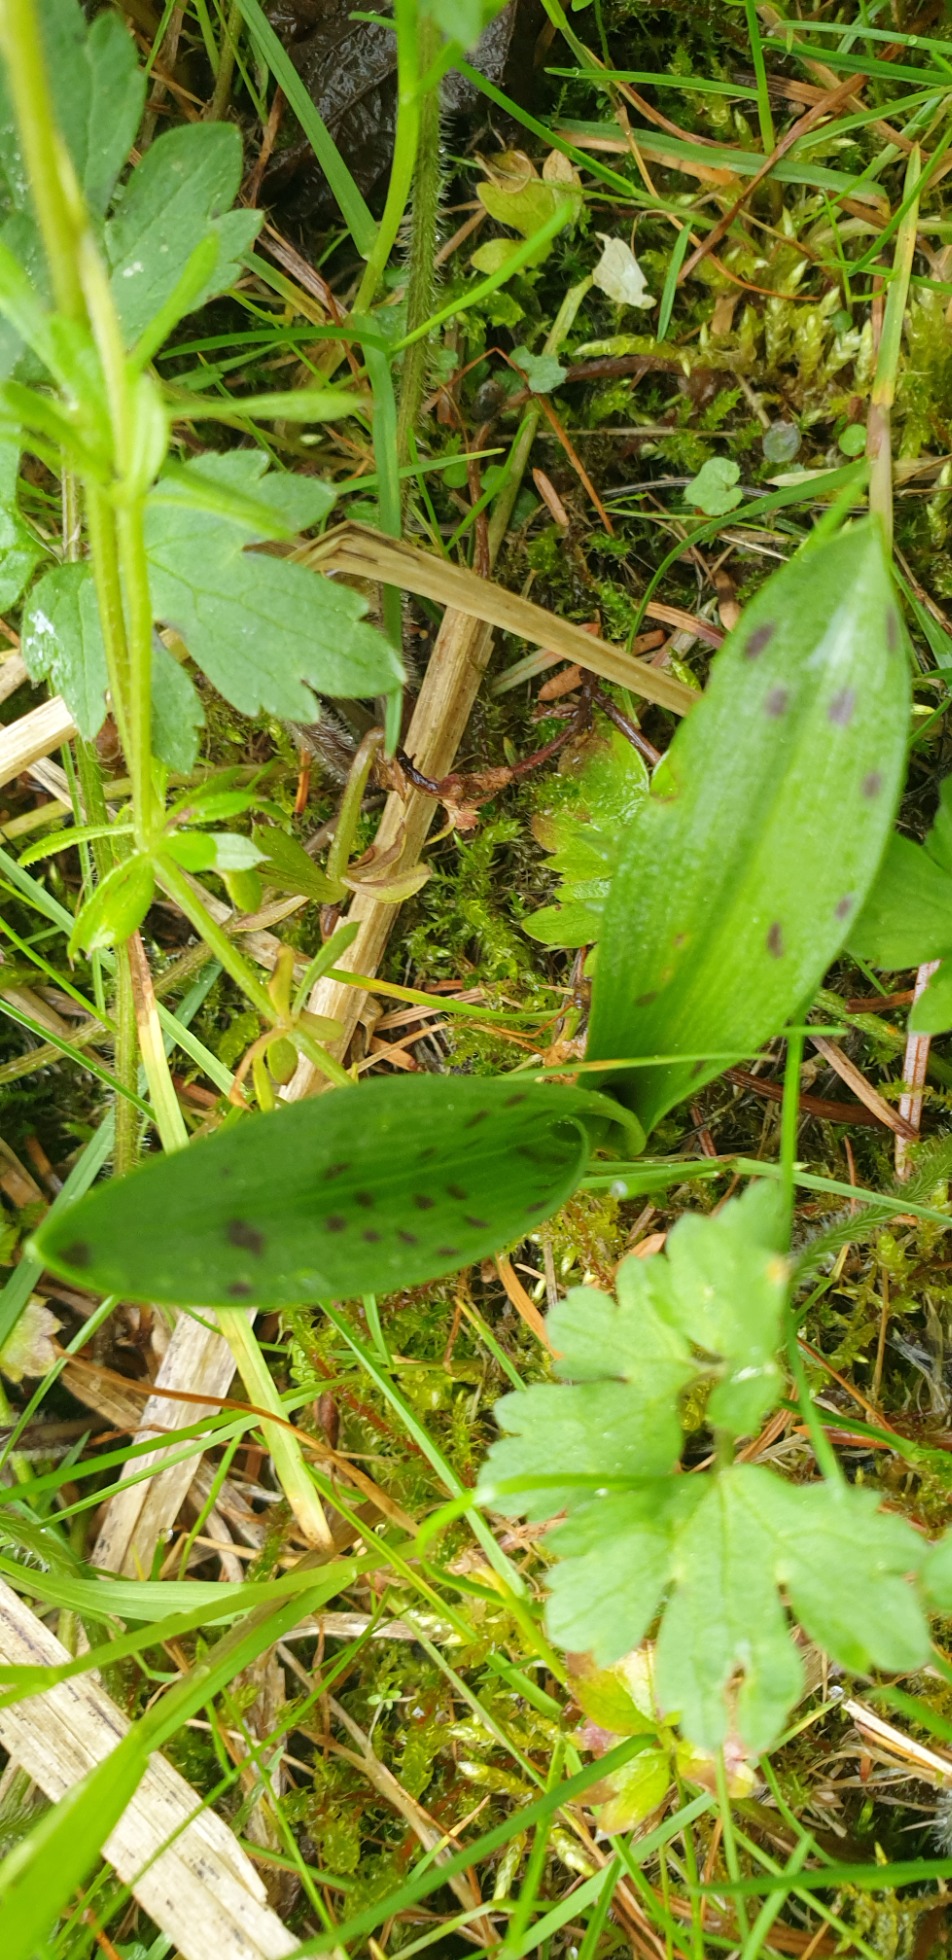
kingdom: Plantae
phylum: Tracheophyta
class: Liliopsida
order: Asparagales
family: Orchidaceae
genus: Dactylorhiza
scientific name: Dactylorhiza majalis
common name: Maj-gøgeurt
